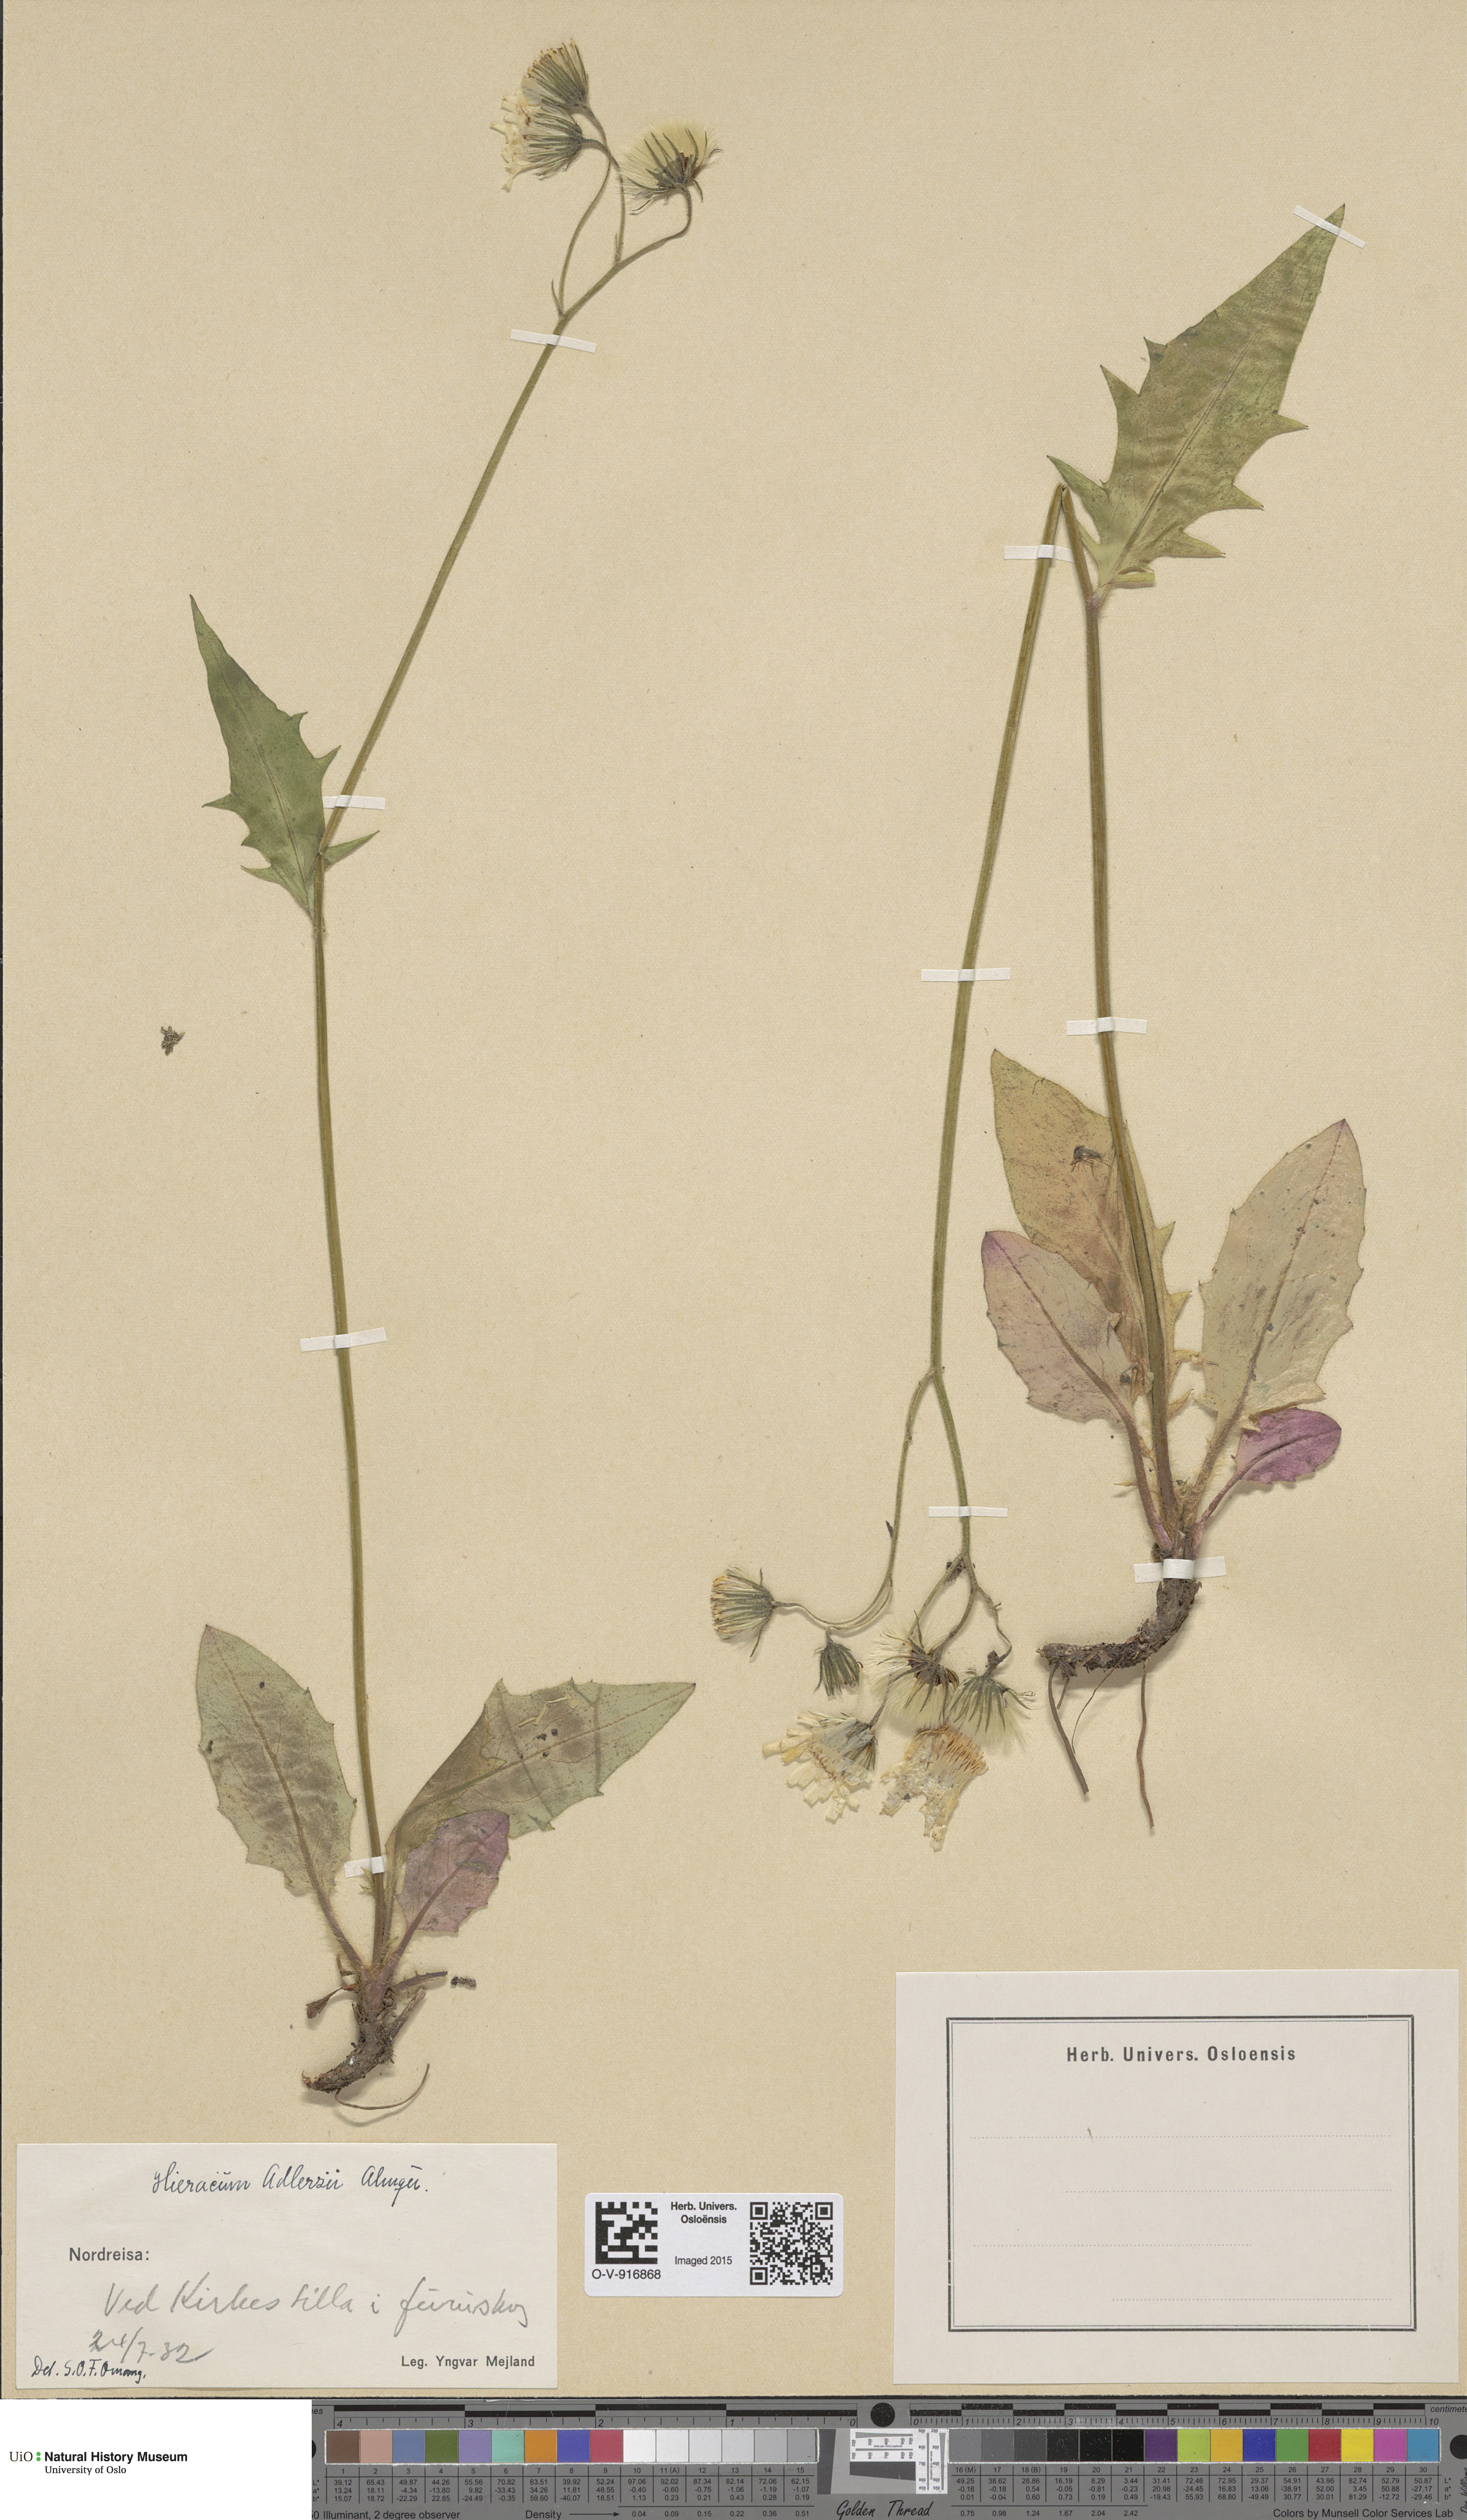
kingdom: Plantae
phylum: Tracheophyta
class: Magnoliopsida
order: Asterales
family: Asteraceae
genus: Hieracium
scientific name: Hieracium
